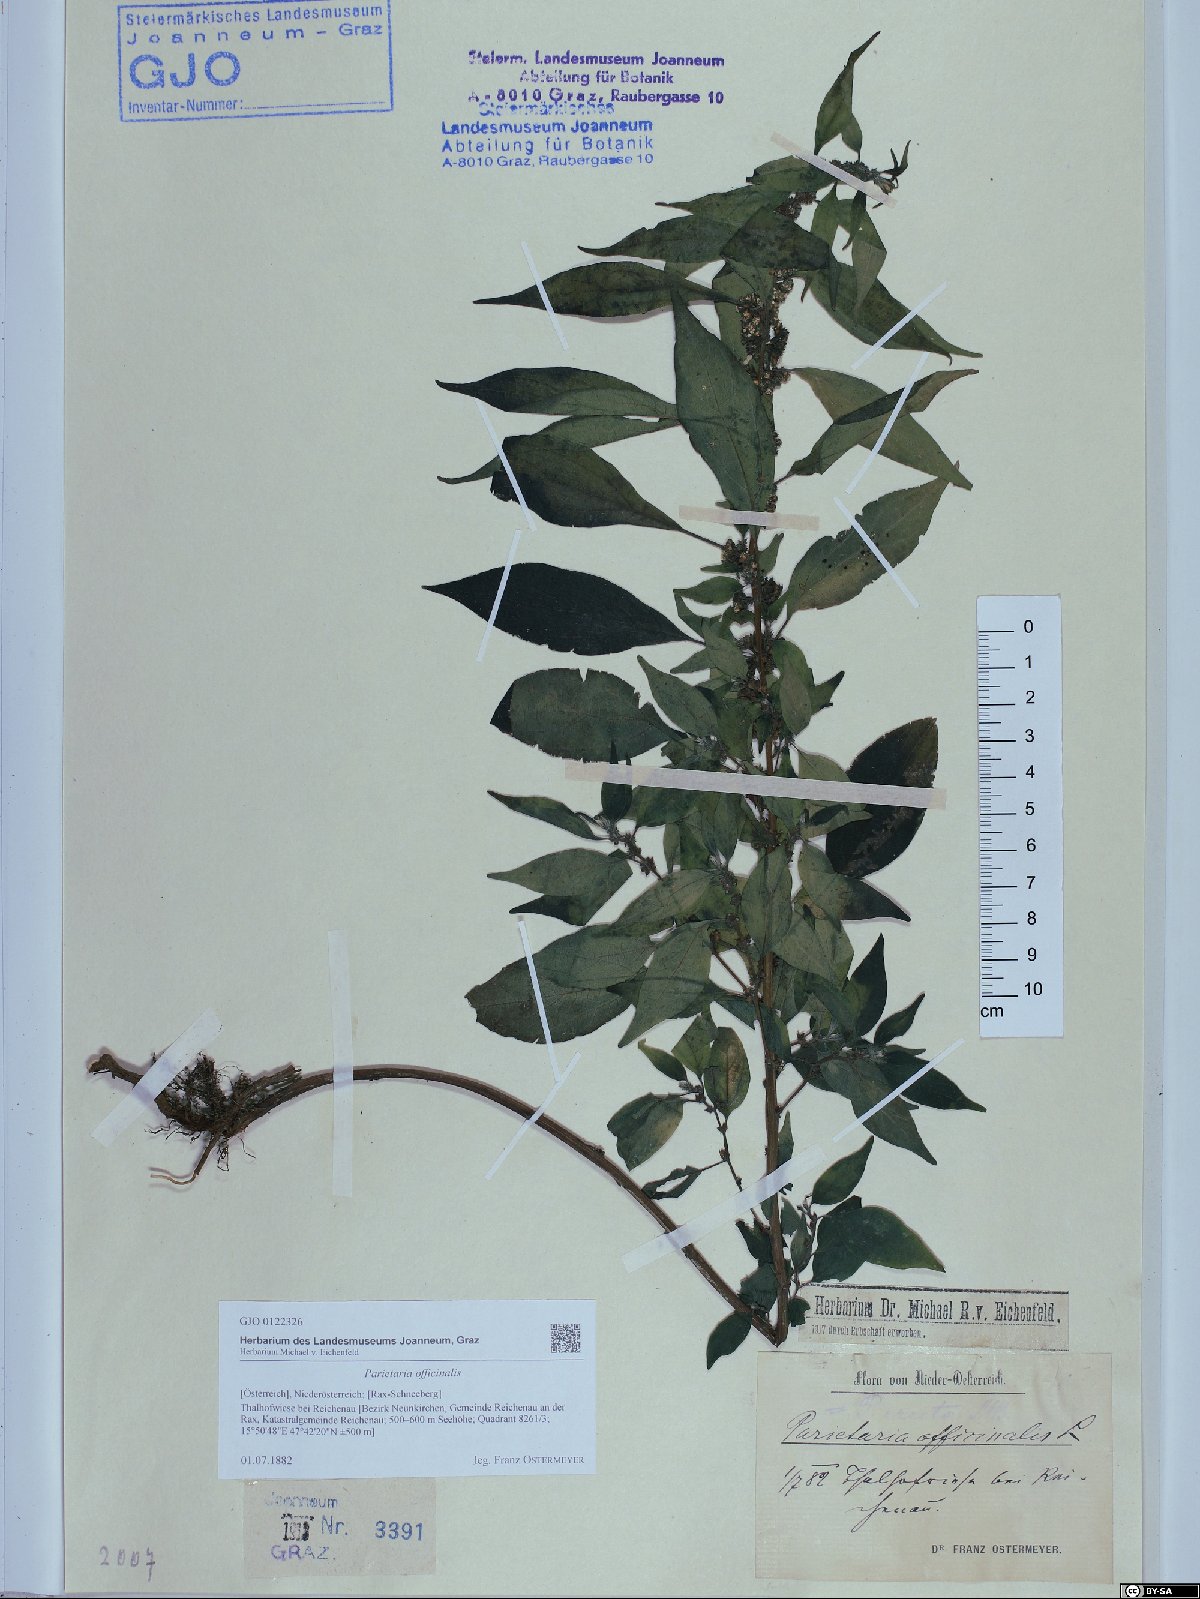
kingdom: Plantae
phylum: Tracheophyta
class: Magnoliopsida
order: Rosales
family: Urticaceae
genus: Parietaria
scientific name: Parietaria officinalis
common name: Eastern pellitory-of-the-wall
